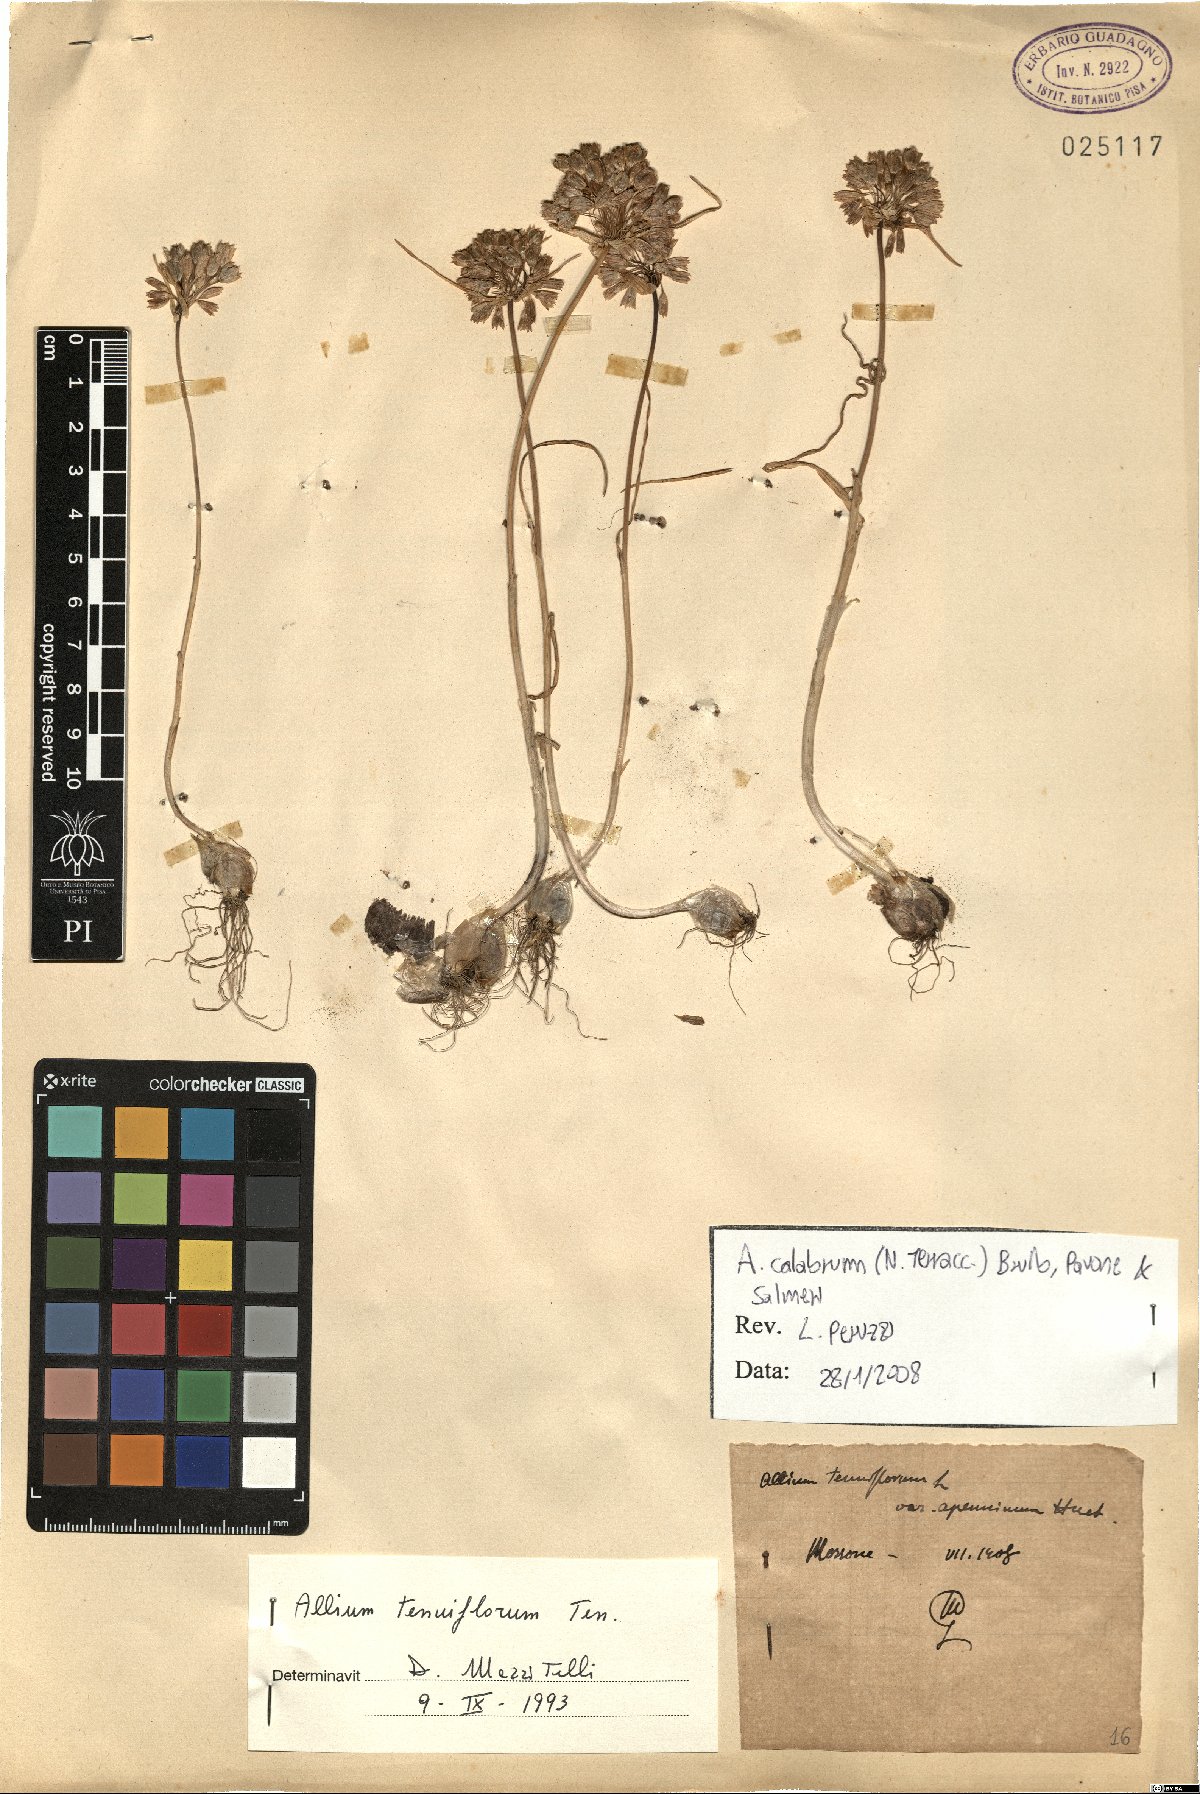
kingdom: Plantae
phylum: Tracheophyta
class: Liliopsida
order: Asparagales
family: Amaryllidaceae
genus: Allium
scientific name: Allium calabrum
